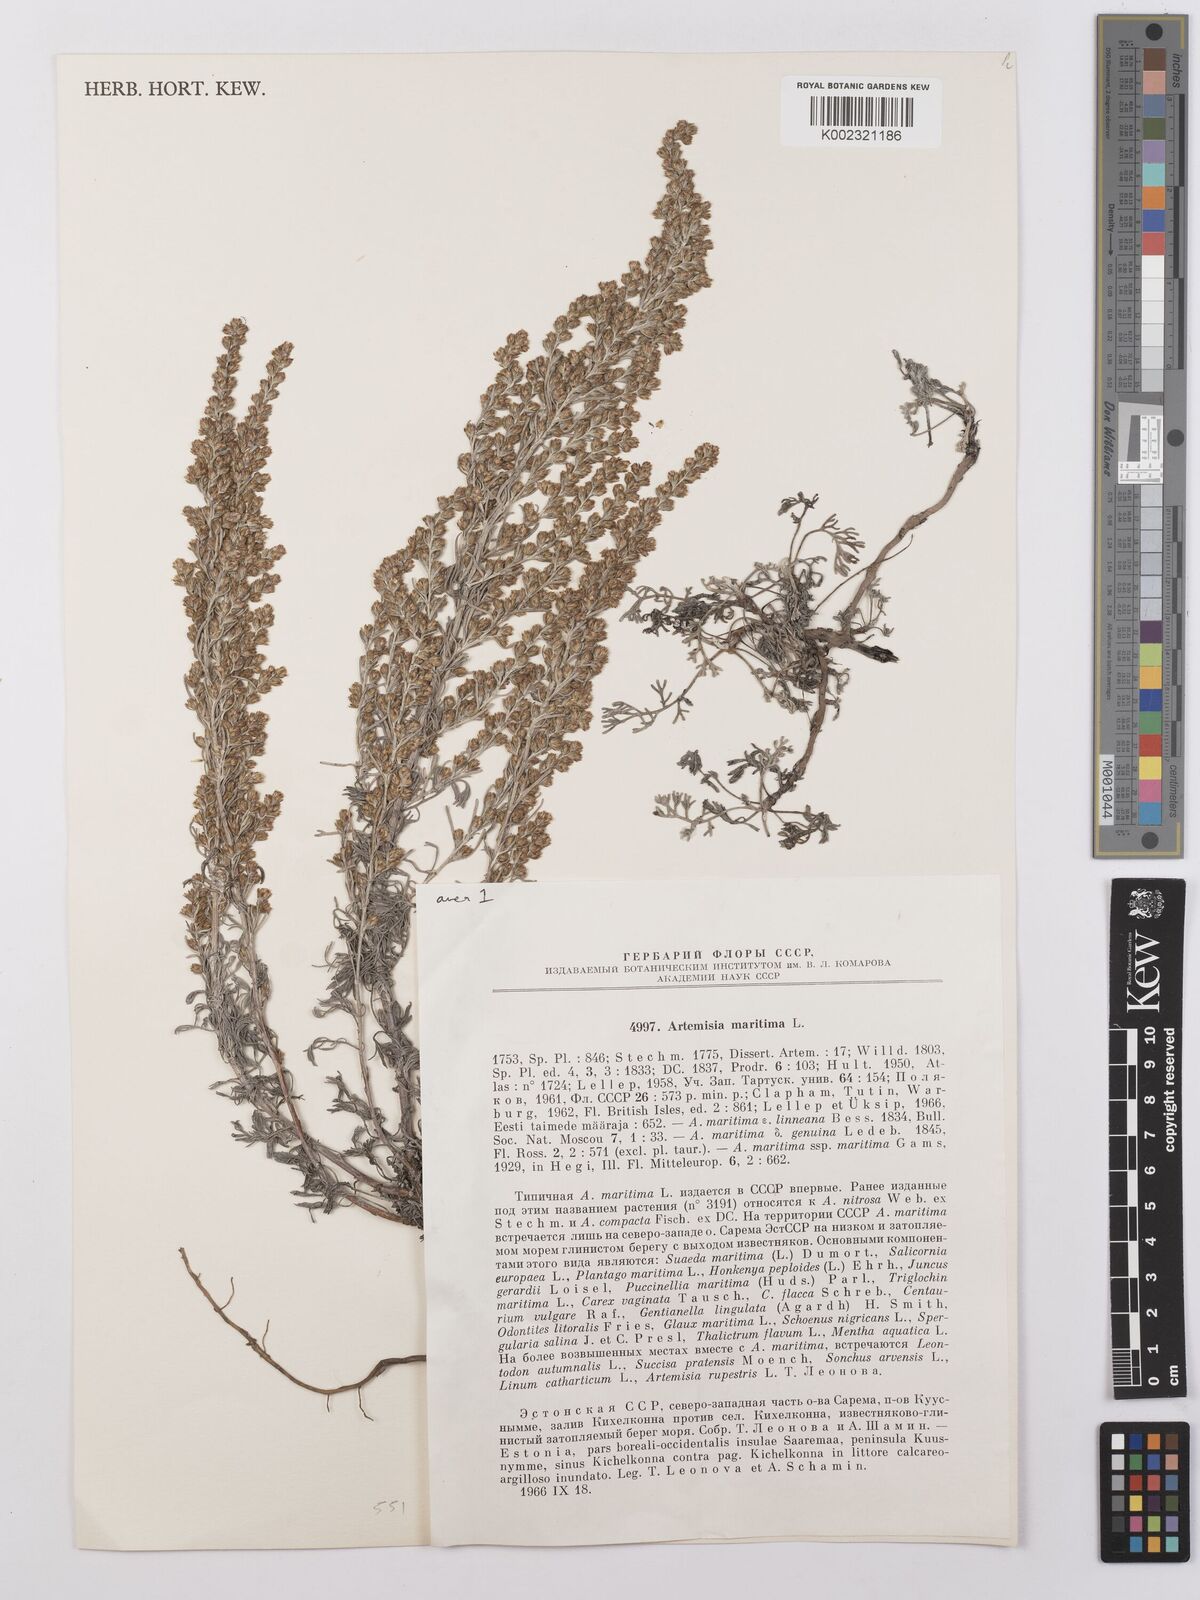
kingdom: Plantae
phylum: Tracheophyta
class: Magnoliopsida
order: Asterales
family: Asteraceae
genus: Artemisia
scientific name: Artemisia maritima
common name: Wormseed
